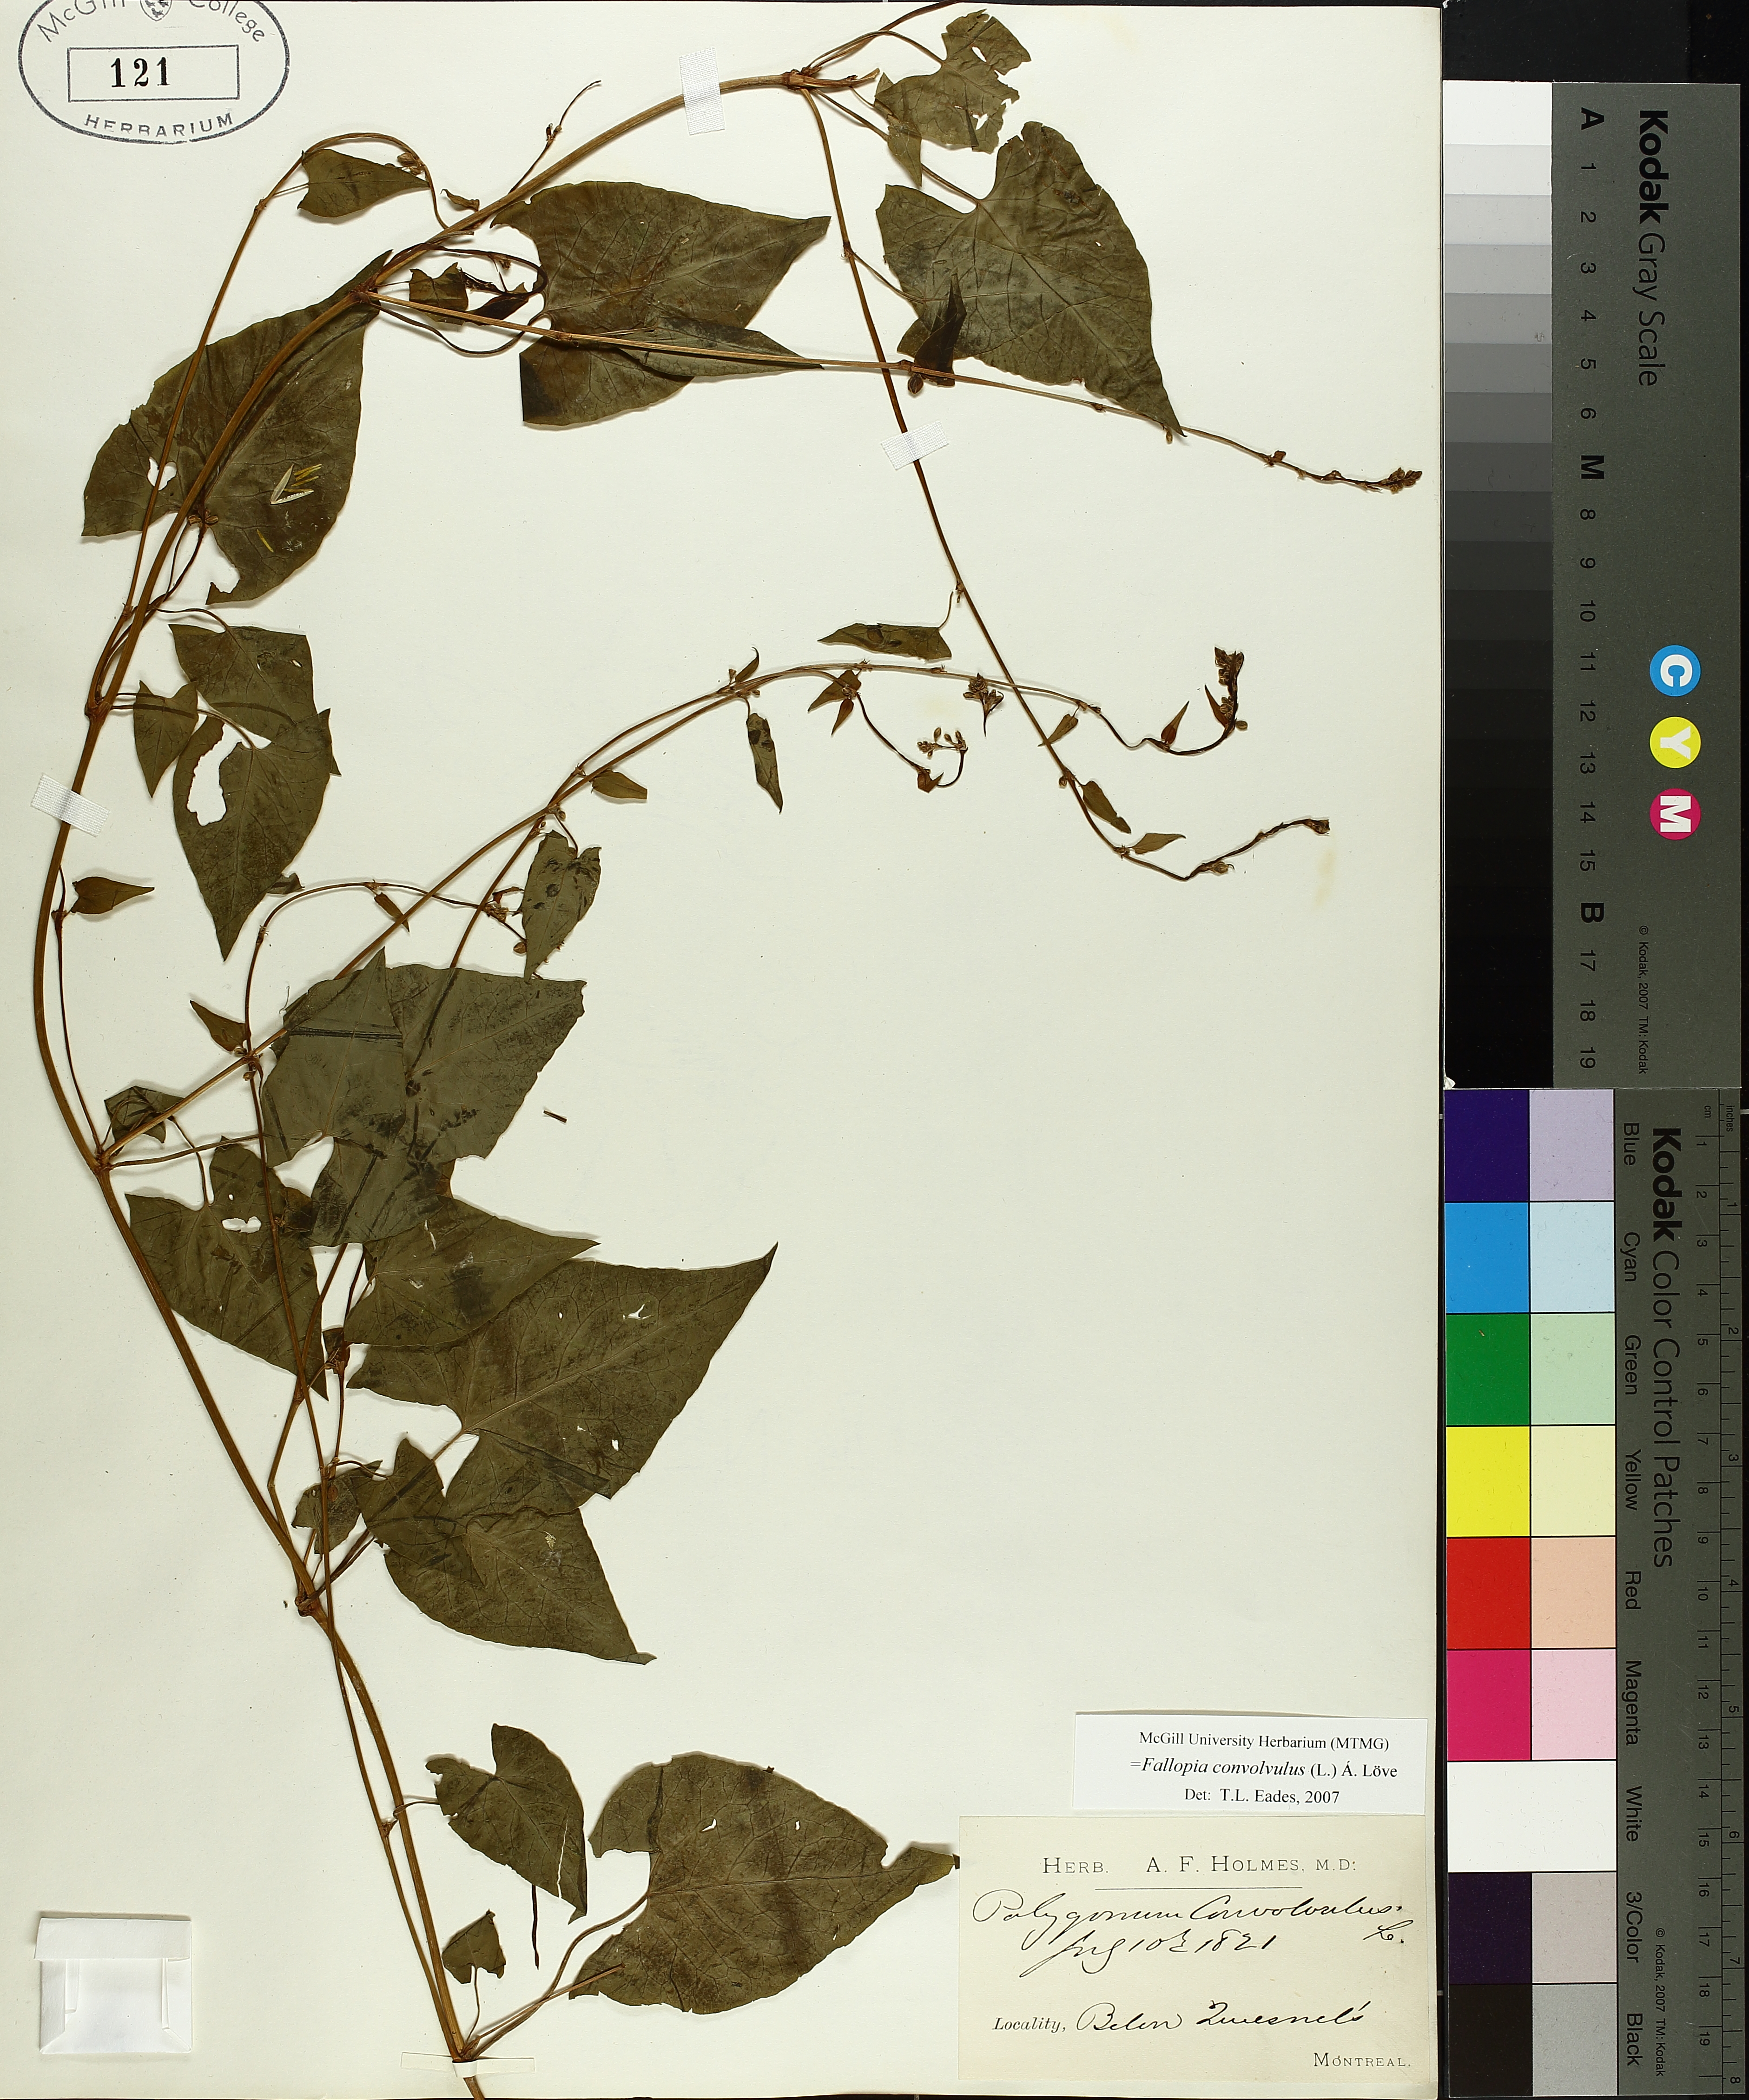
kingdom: Plantae
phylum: Tracheophyta
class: Magnoliopsida
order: Caryophyllales
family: Polygonaceae
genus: Fallopia
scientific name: Fallopia convolvulus
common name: Black bindweed
